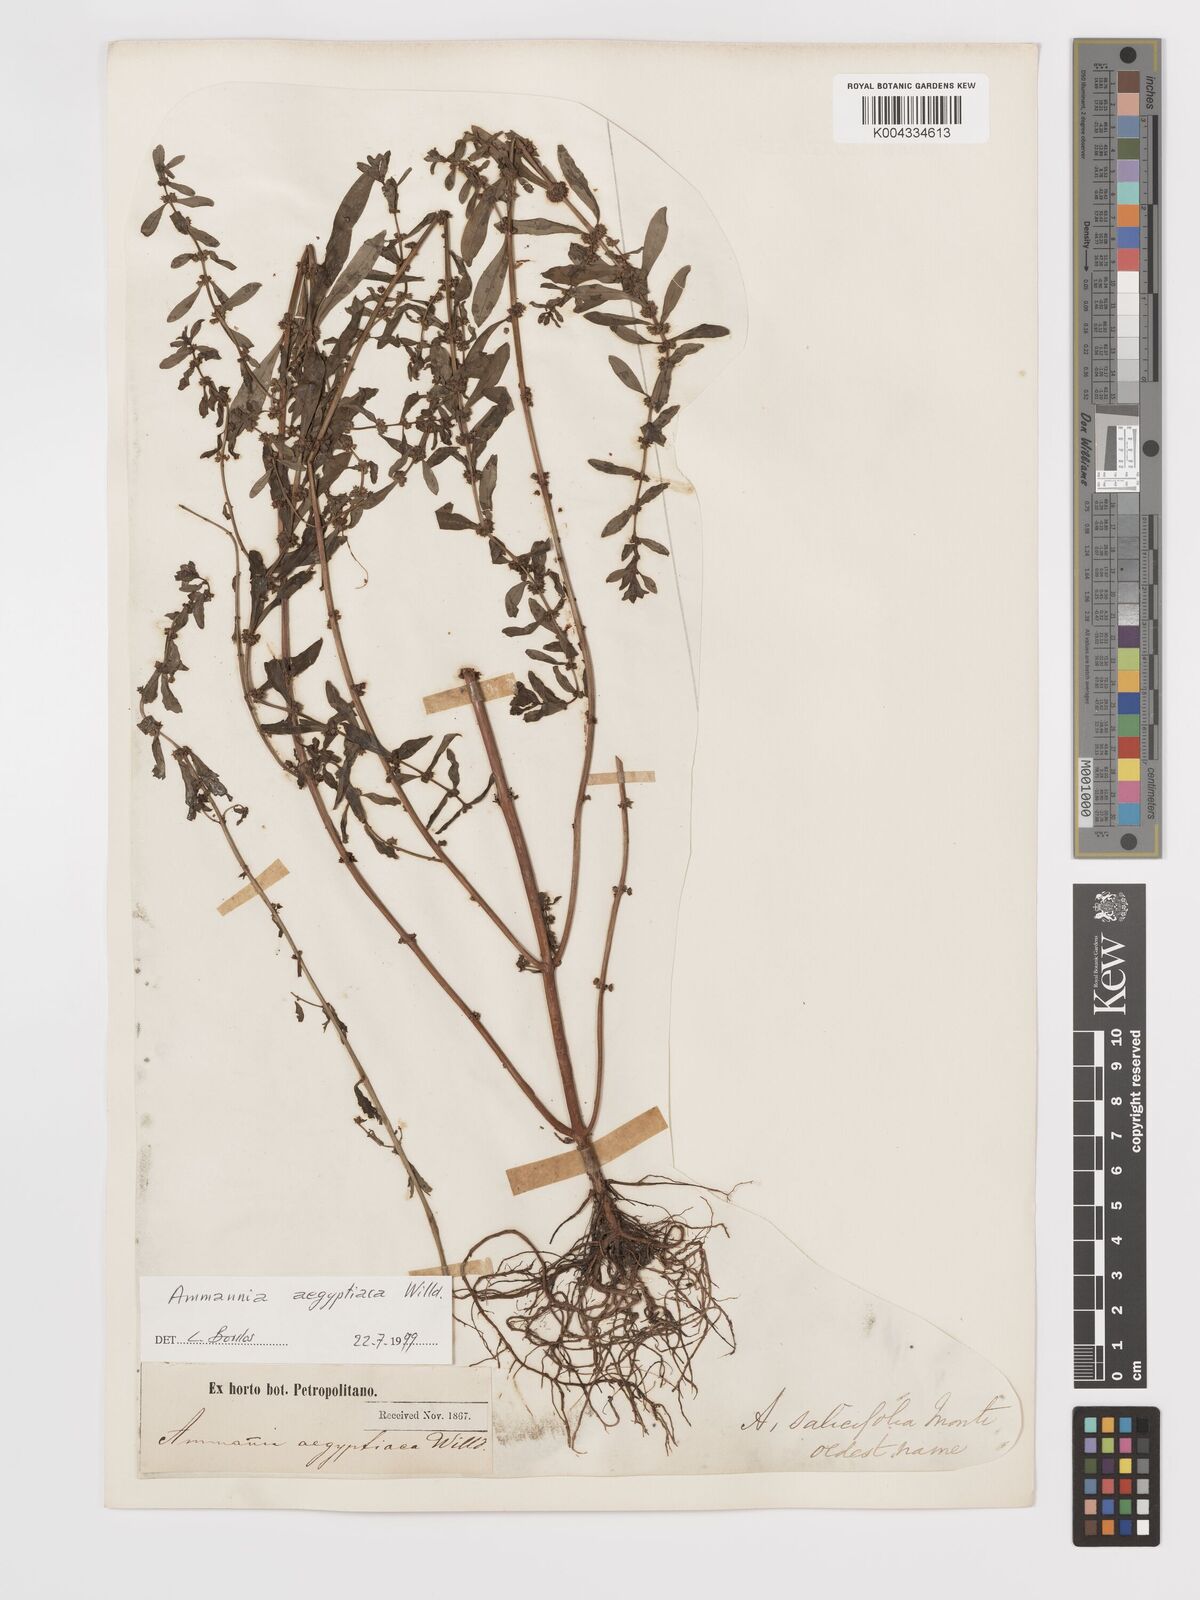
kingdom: Plantae
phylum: Tracheophyta
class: Magnoliopsida
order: Myrtales
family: Lythraceae
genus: Ammannia
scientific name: Ammannia
